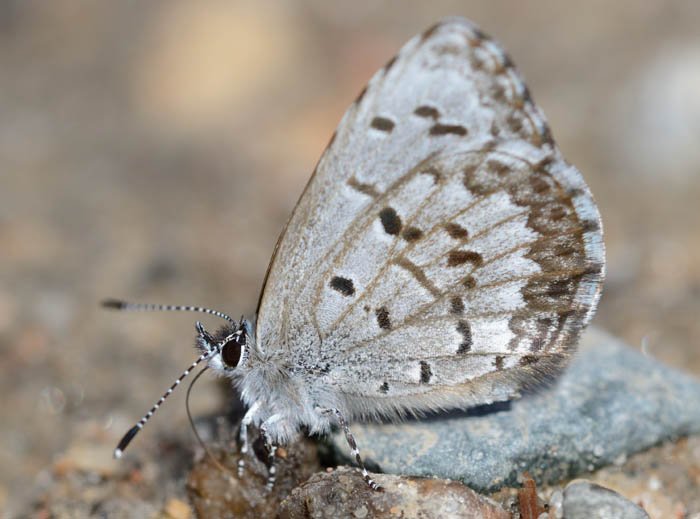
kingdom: Animalia
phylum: Arthropoda
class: Insecta
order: Lepidoptera
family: Lycaenidae
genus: Celastrina
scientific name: Celastrina lucia
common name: Northern Spring Azure
